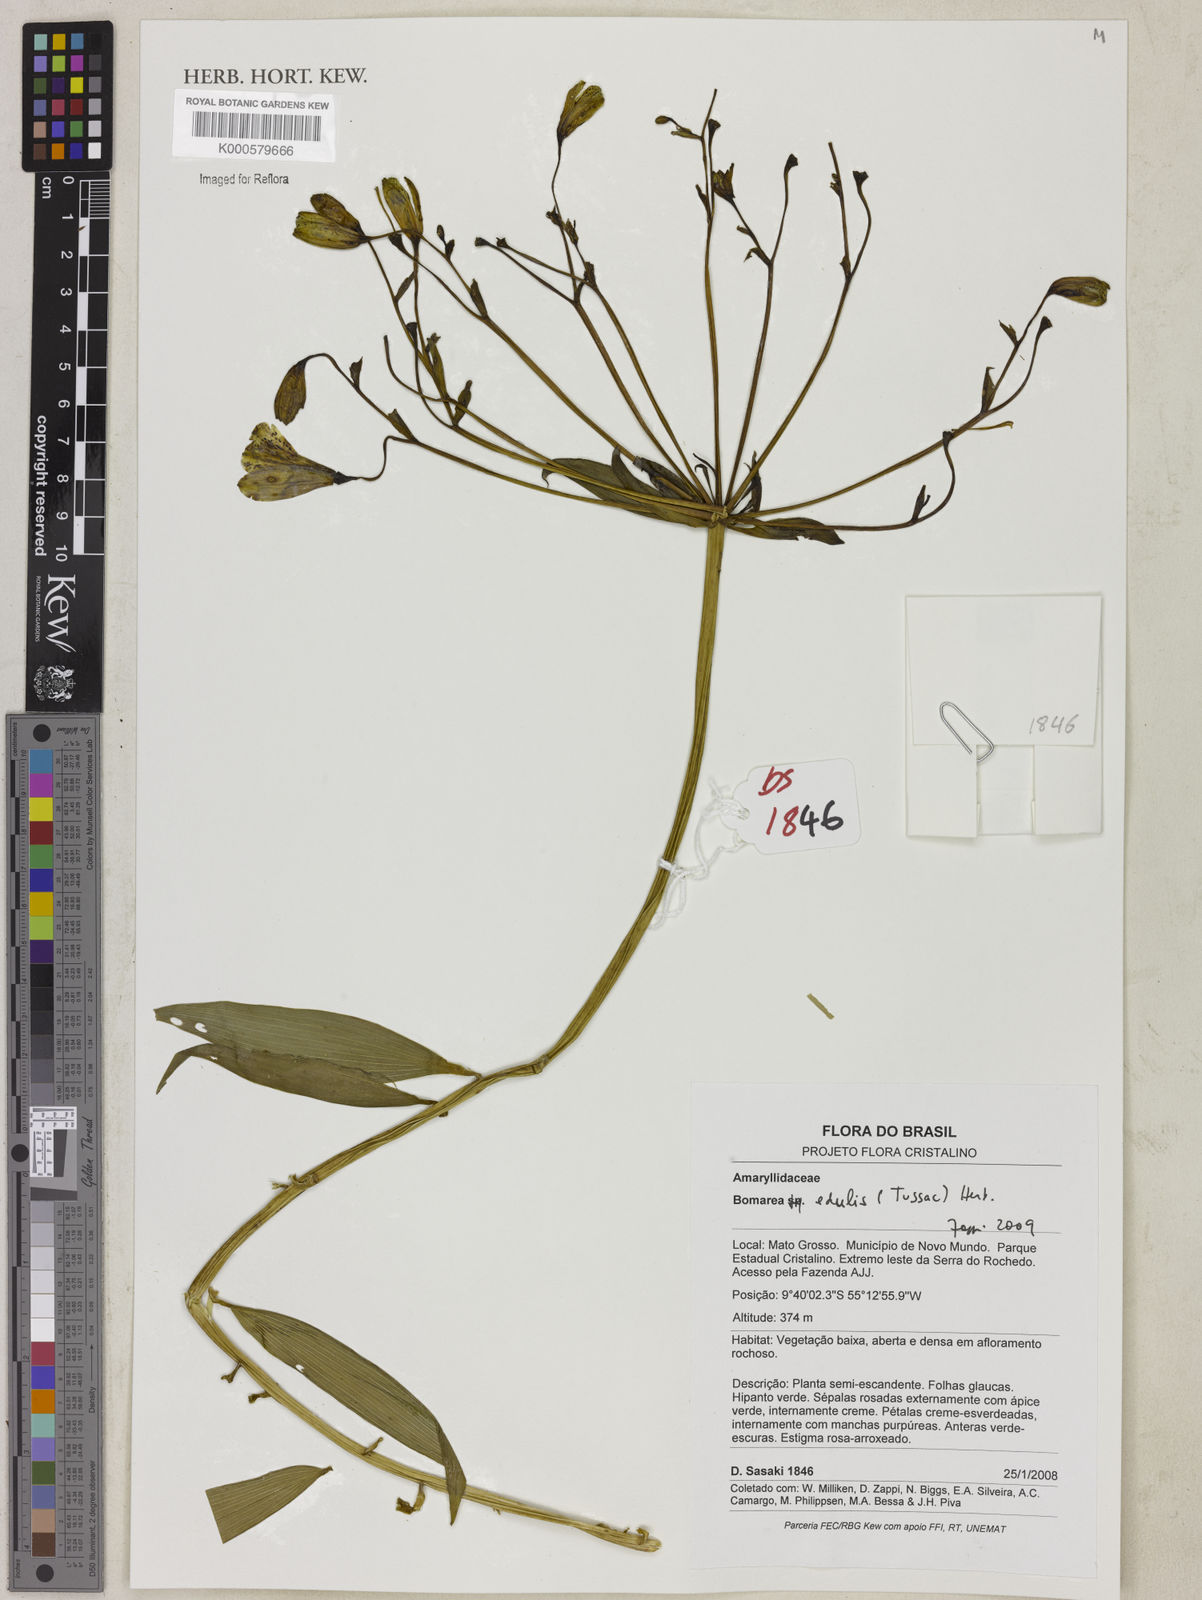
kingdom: Plantae
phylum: Tracheophyta
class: Liliopsida
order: Liliales
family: Alstroemeriaceae
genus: Bomarea
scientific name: Bomarea edulis
